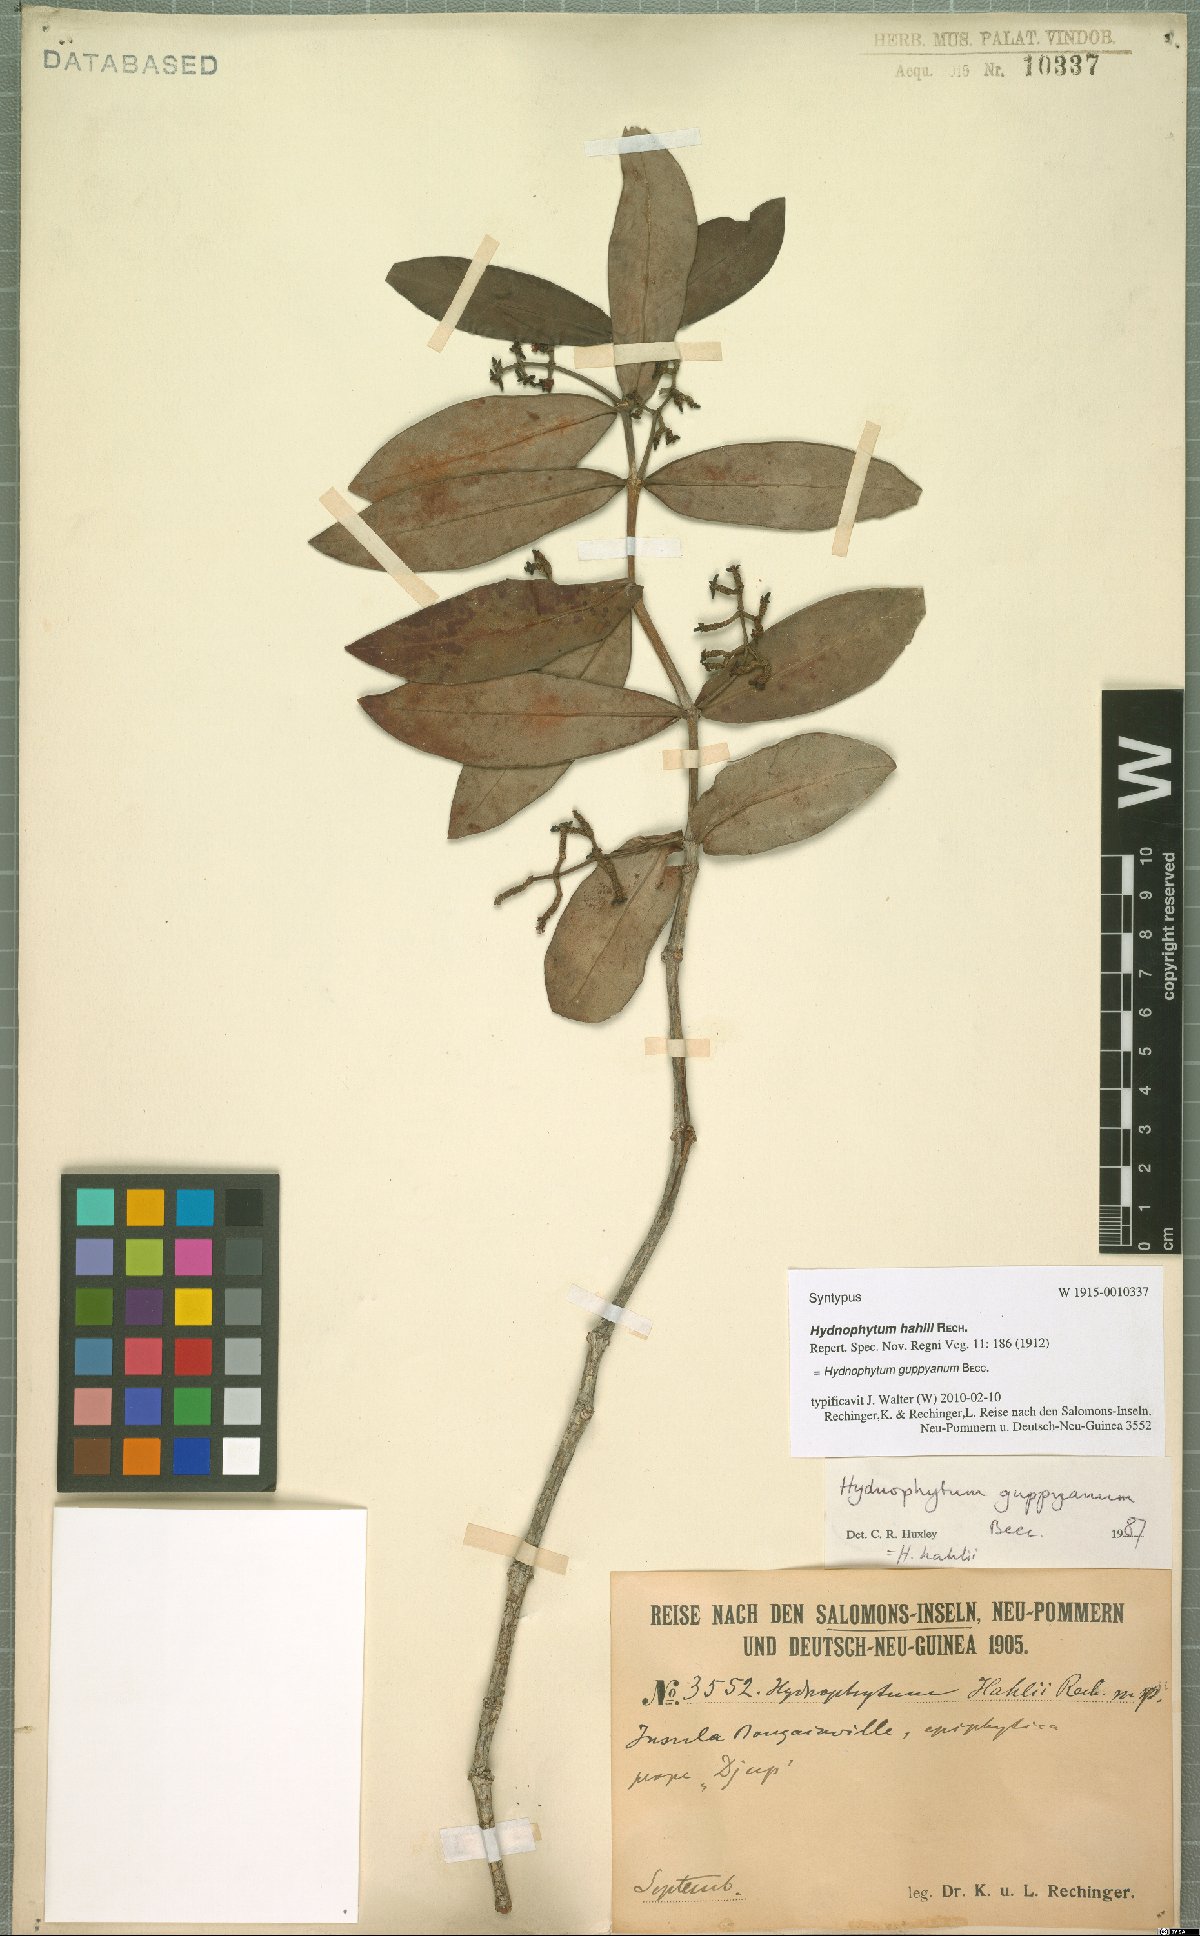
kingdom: Plantae
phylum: Tracheophyta
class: Magnoliopsida
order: Gentianales
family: Rubiaceae
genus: Squamellaria
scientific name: Squamellaria guppyana
